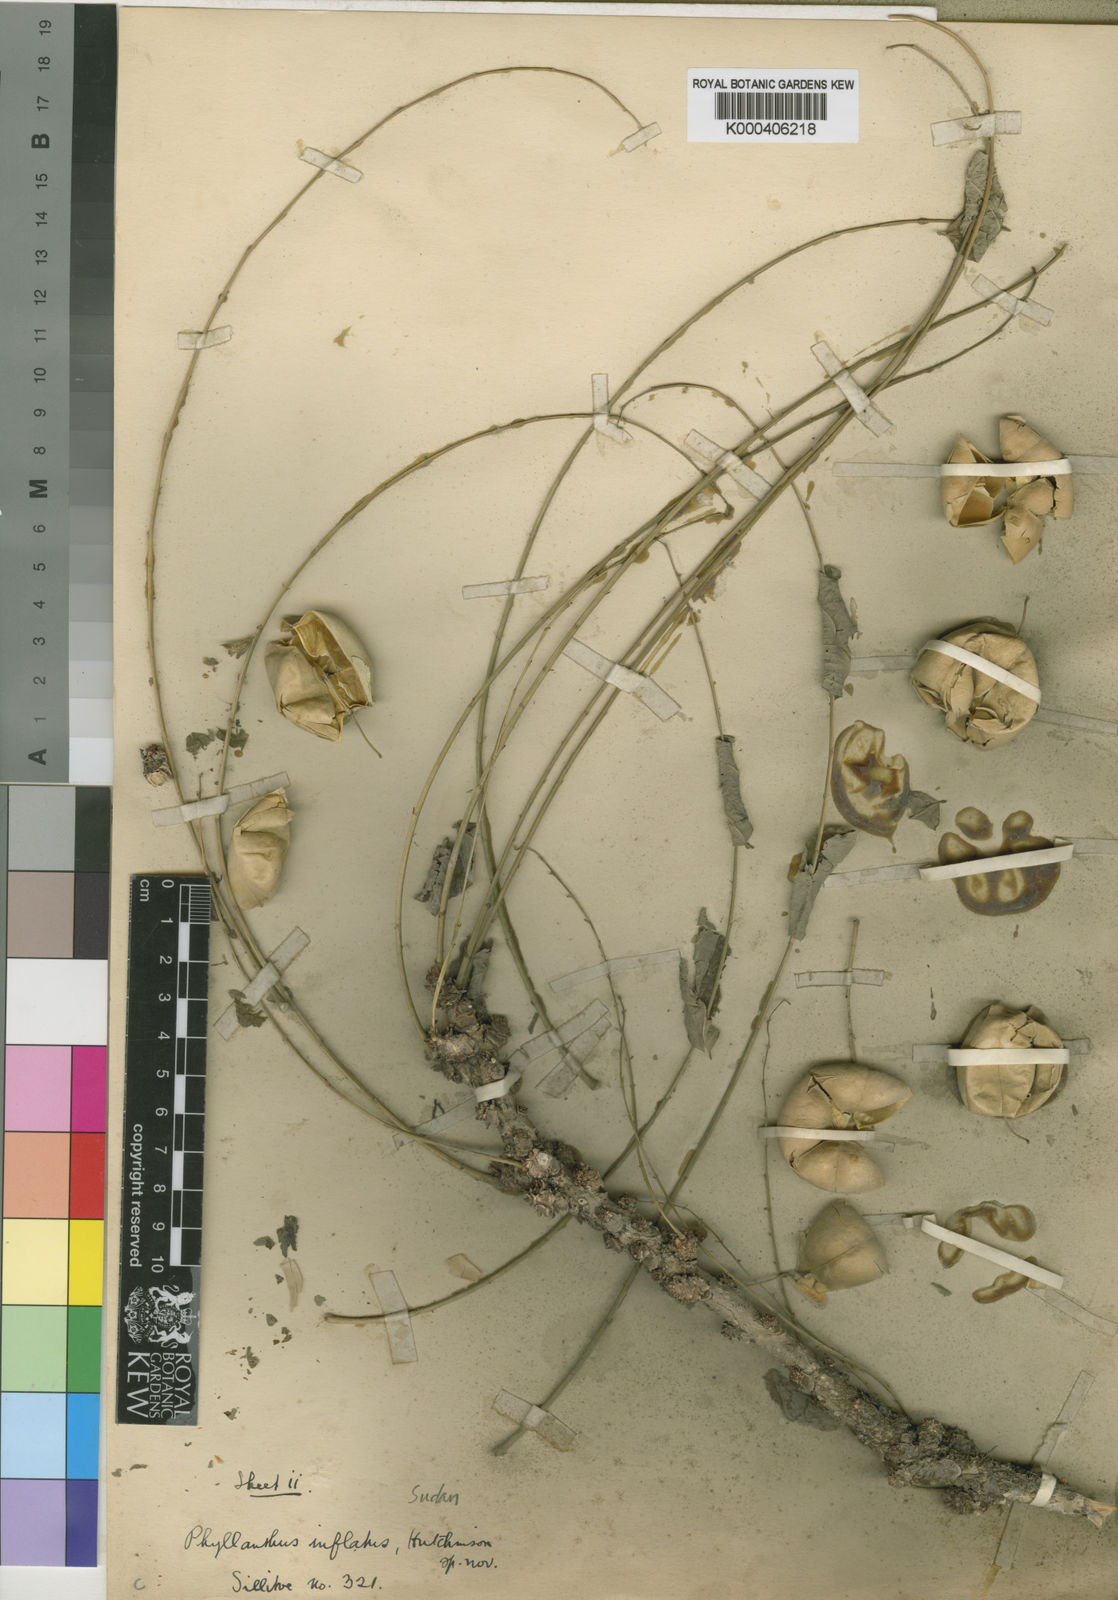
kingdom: Plantae
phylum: Tracheophyta
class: Magnoliopsida
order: Malpighiales
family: Phyllanthaceae
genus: Phyllanthus
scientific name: Phyllanthus inflatus
